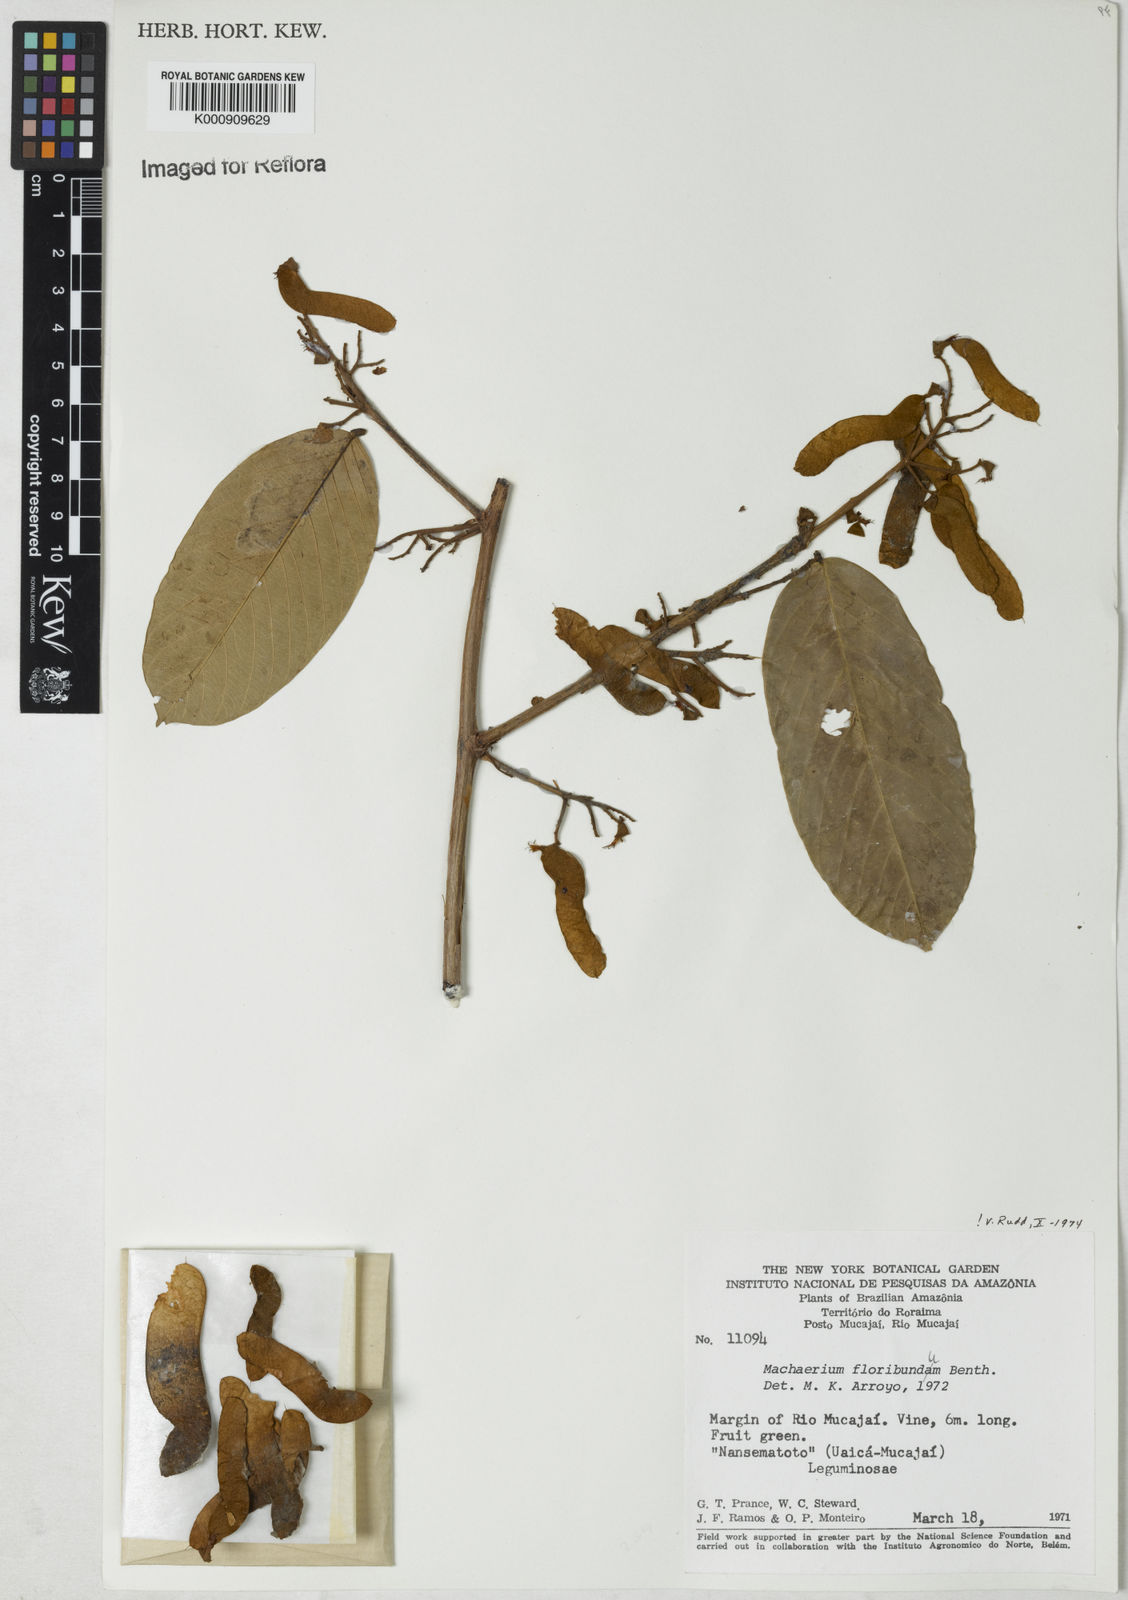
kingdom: Plantae
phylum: Tracheophyta
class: Magnoliopsida
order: Fabales
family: Fabaceae
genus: Machaerium
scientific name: Machaerium floribundum
